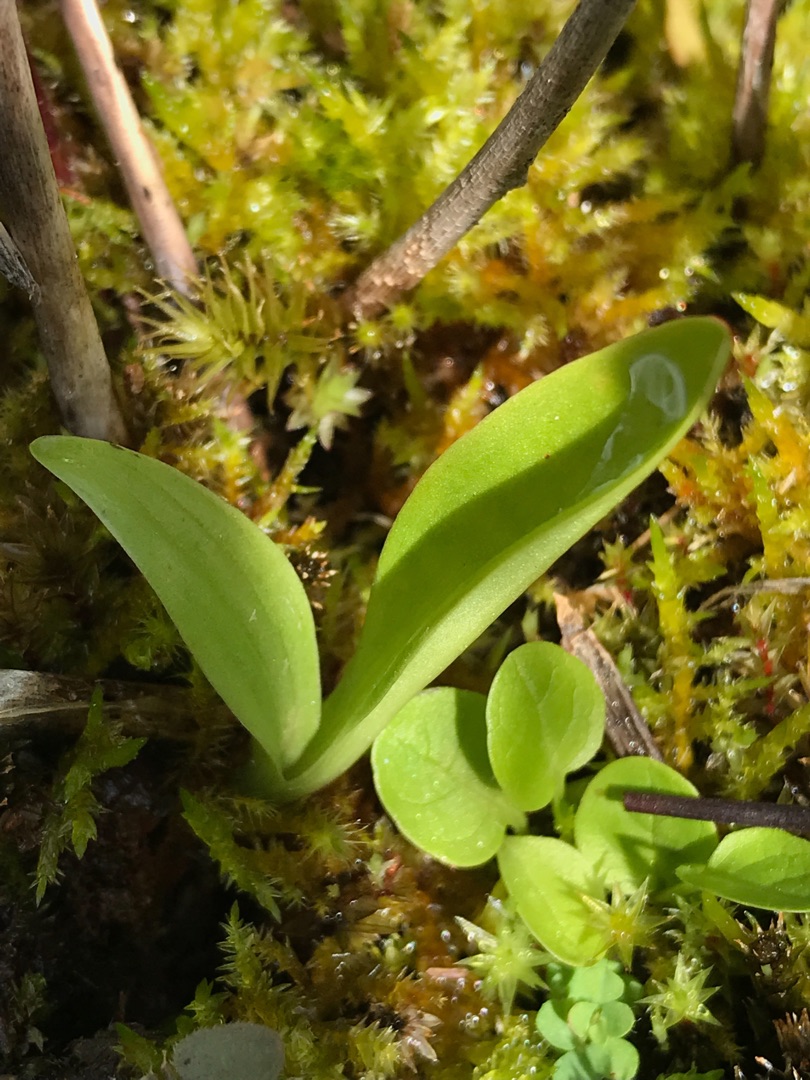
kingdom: Animalia
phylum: Arthropoda
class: Insecta
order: Coleoptera
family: Curculionidae
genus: Liparis
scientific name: Liparis loeselii
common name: Mygblomst
